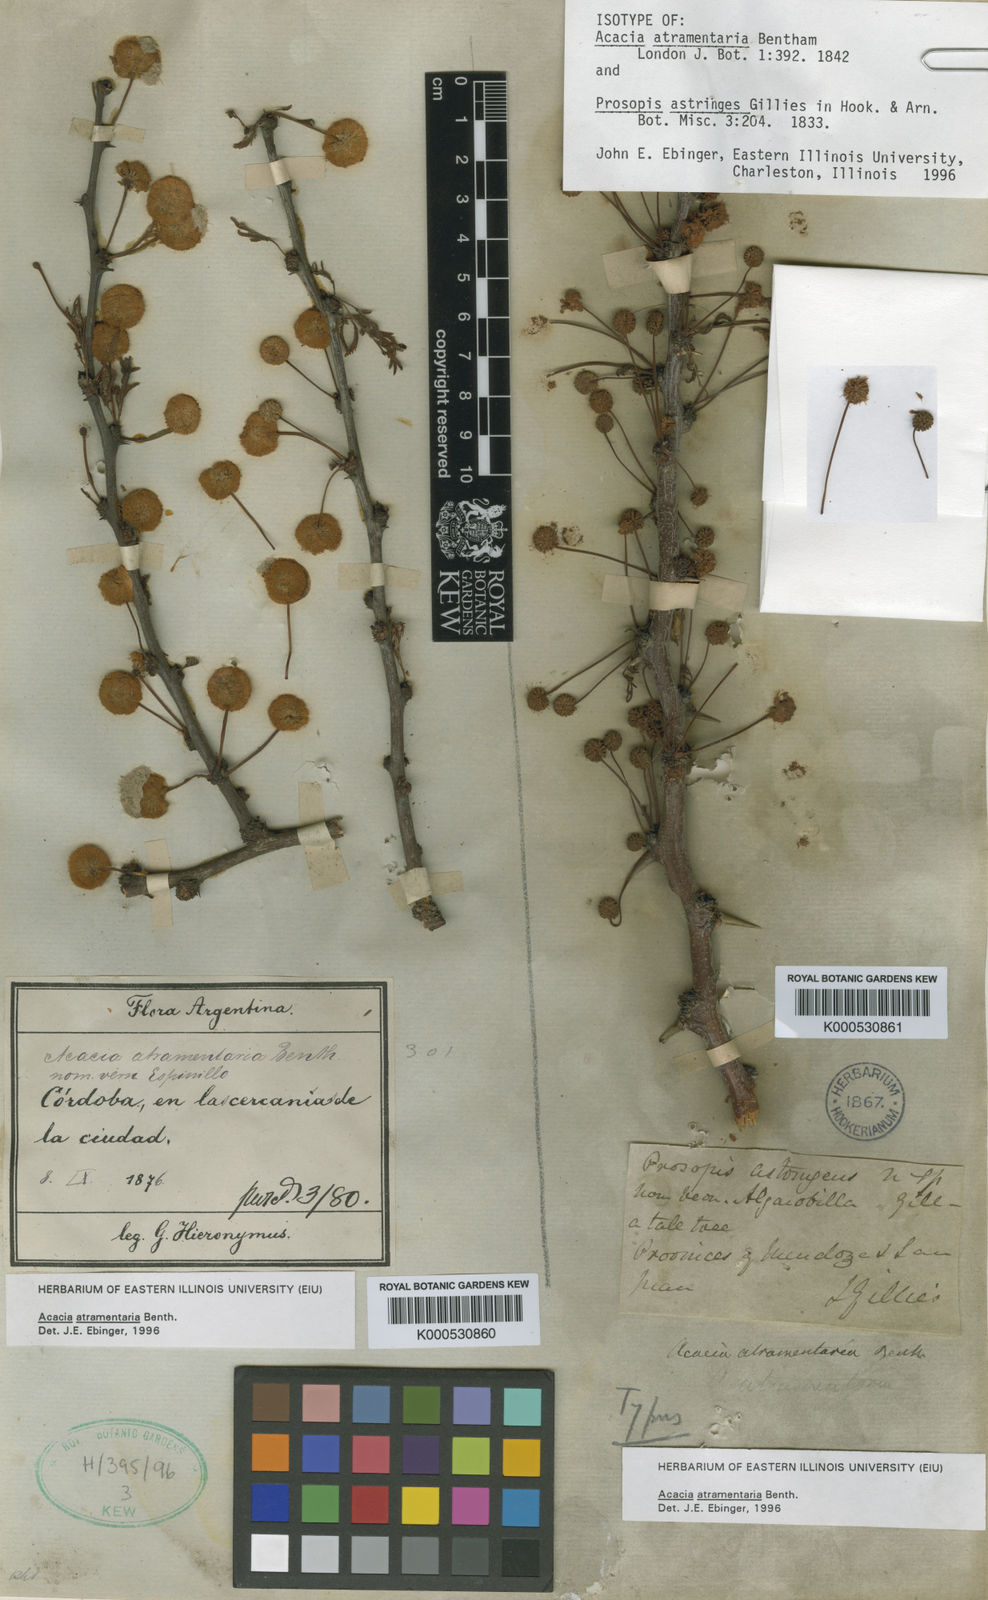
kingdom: Plantae
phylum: Tracheophyta
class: Magnoliopsida
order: Fabales
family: Fabaceae
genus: Vachellia
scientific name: Vachellia astringens
